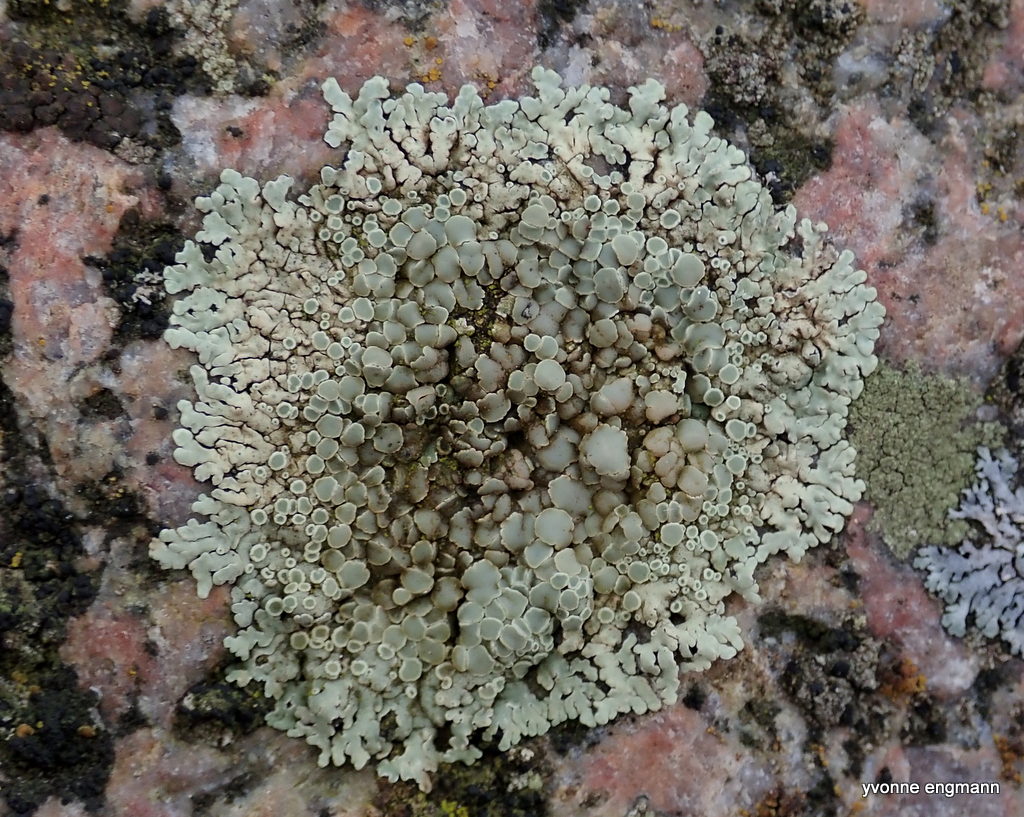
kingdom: Fungi
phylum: Ascomycota
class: Lecanoromycetes
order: Lecanorales
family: Lecanoraceae
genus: Protoparmeliopsis
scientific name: Protoparmeliopsis muralis
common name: randfliget kantskivelav
